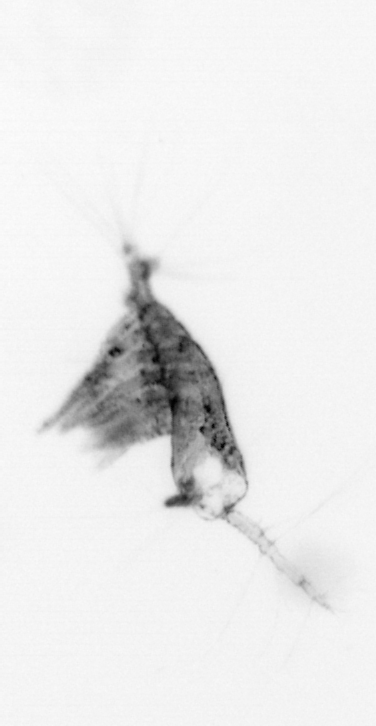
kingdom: Animalia
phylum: Arthropoda
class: Copepoda
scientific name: Copepoda
